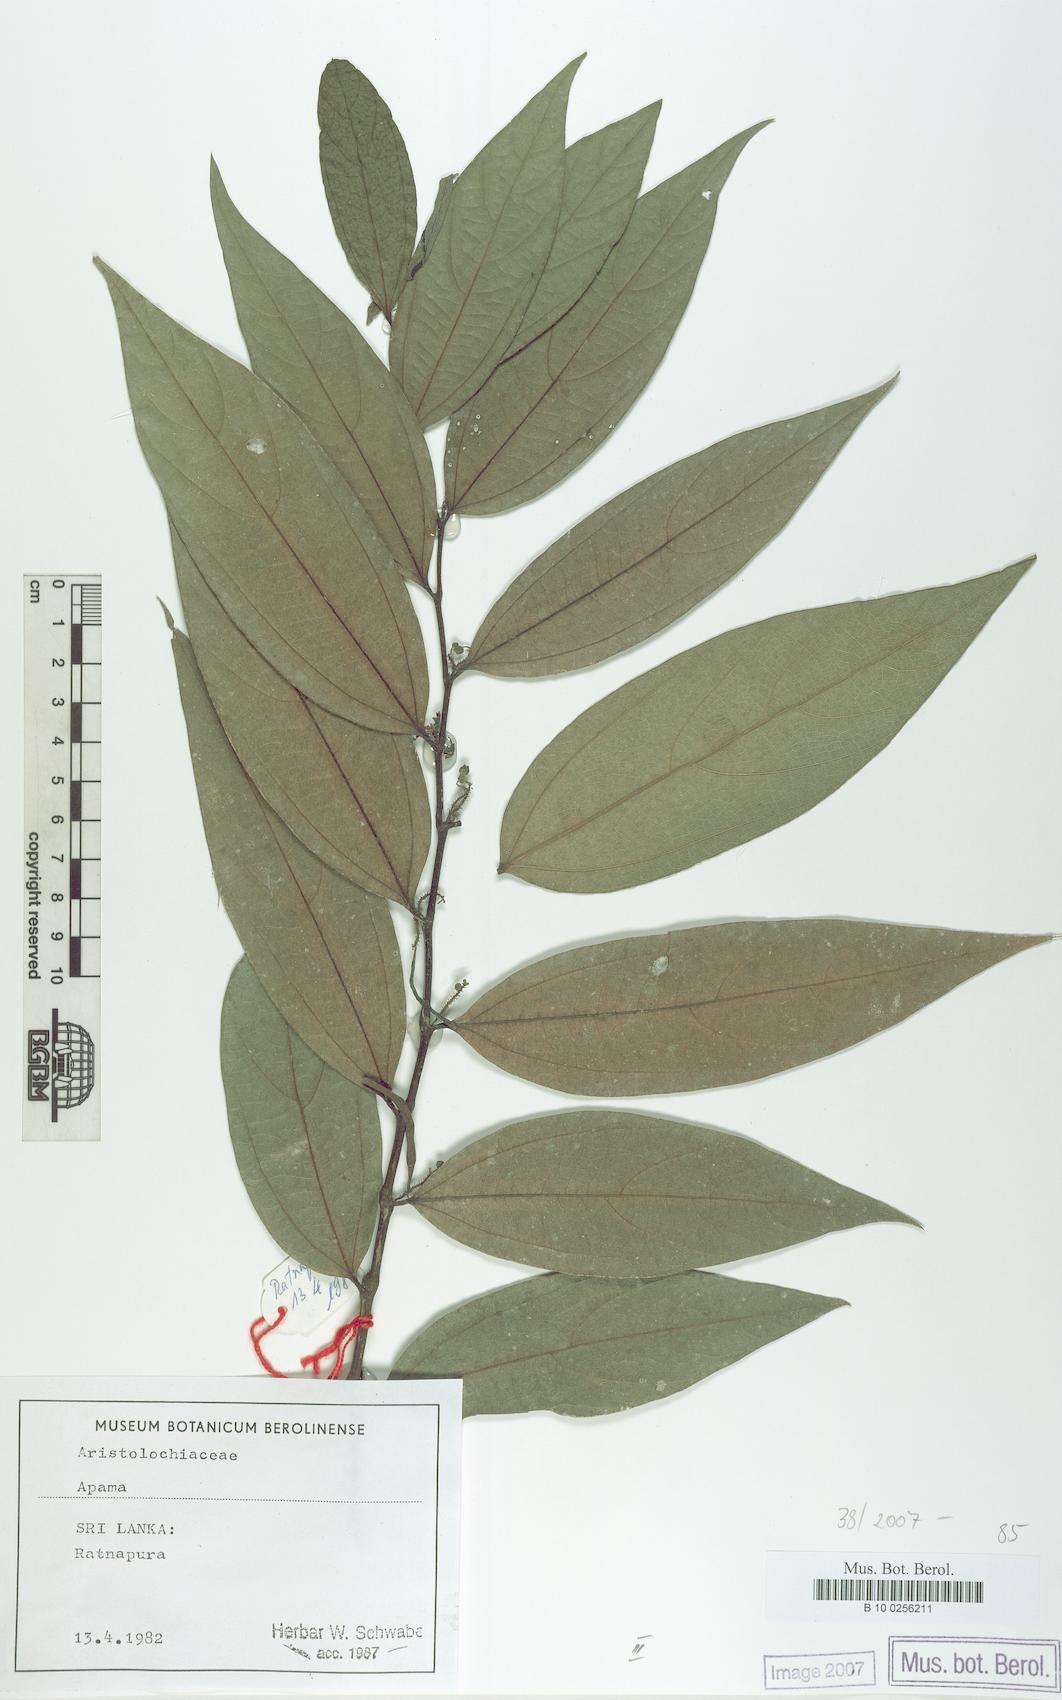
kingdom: Plantae
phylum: Tracheophyta
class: Magnoliopsida
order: Piperales
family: Aristolochiaceae
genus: Thottea
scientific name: Thottea
